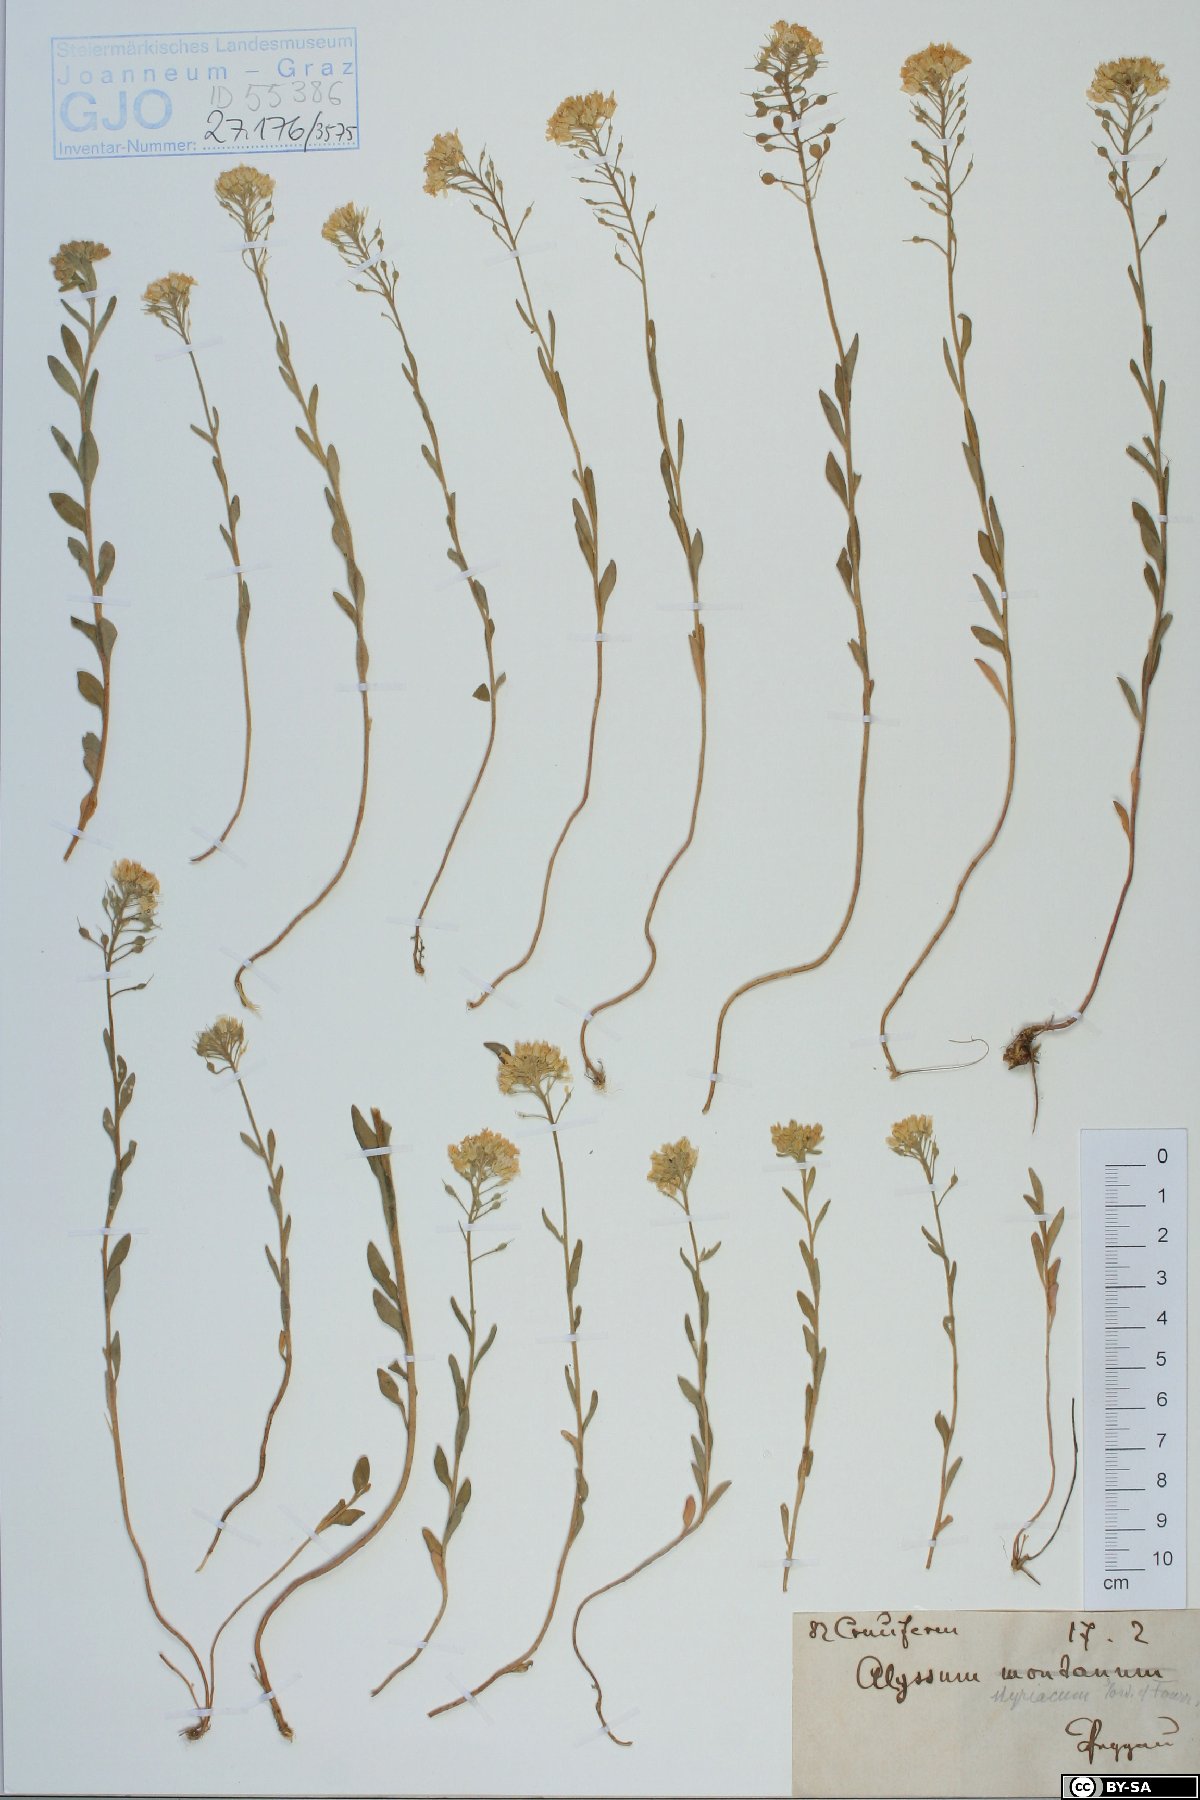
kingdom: Plantae
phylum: Tracheophyta
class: Magnoliopsida
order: Brassicales
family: Brassicaceae
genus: Alyssum
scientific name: Alyssum repens
